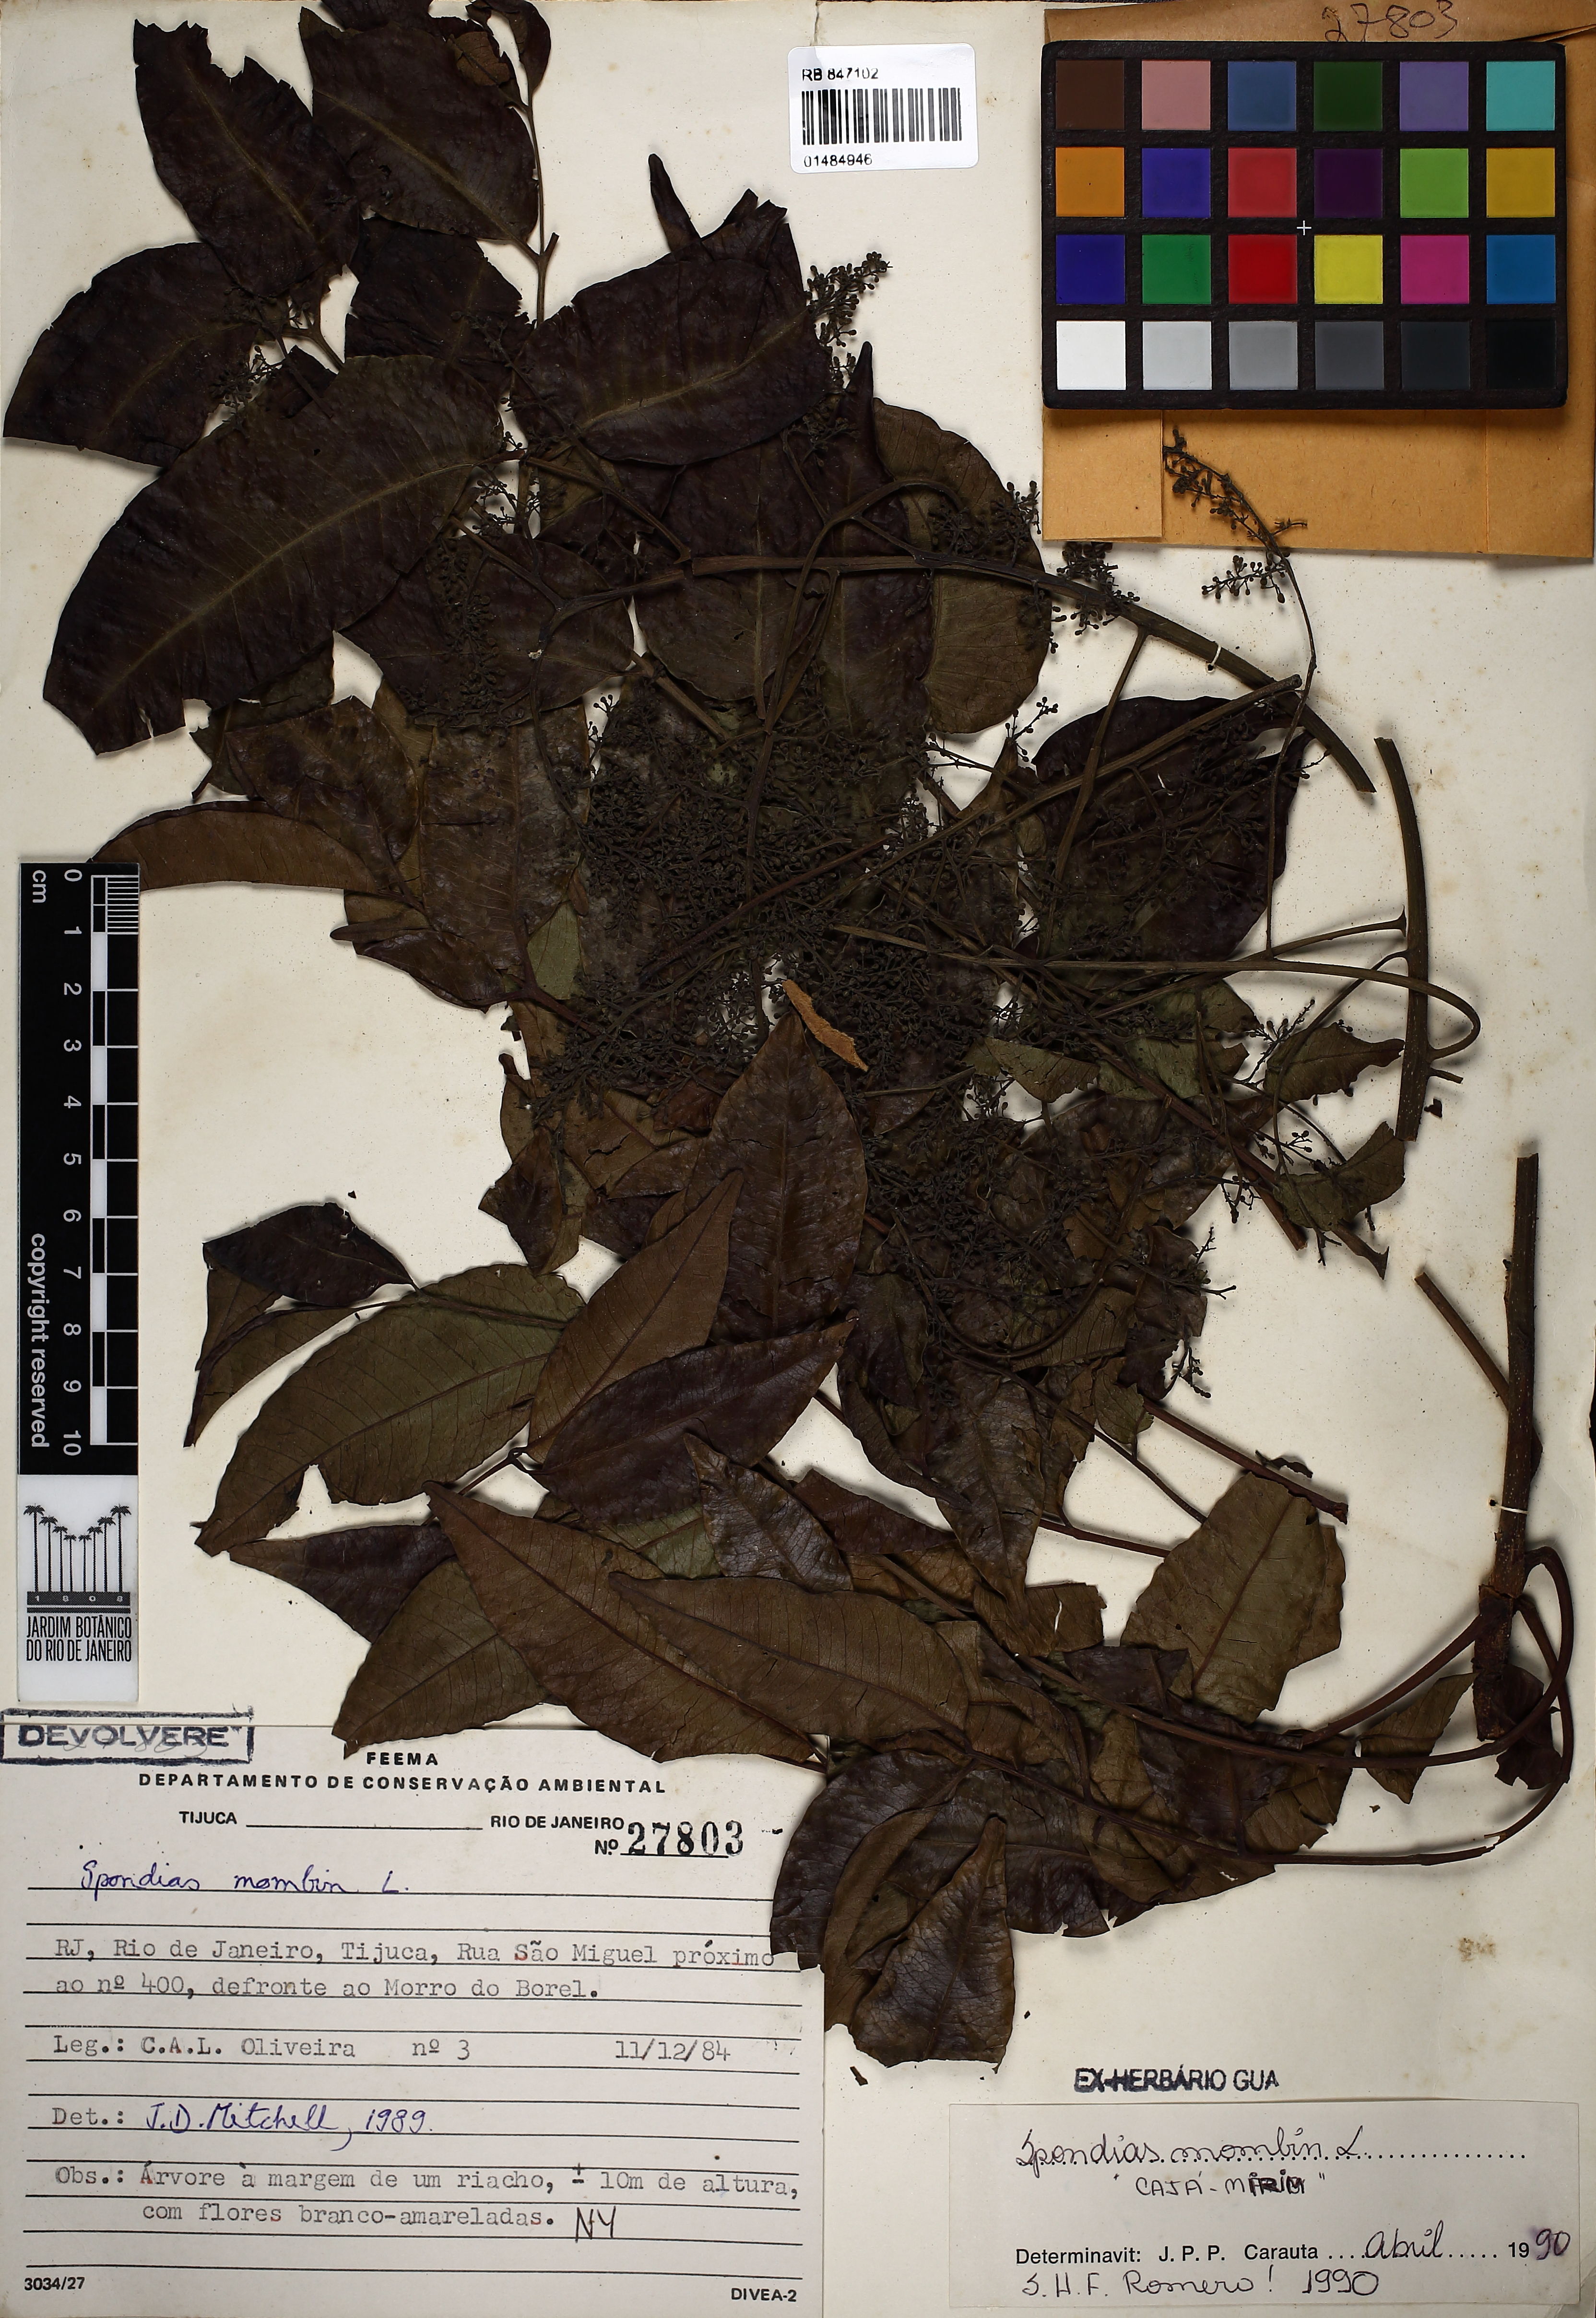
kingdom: Plantae
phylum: Tracheophyta
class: Magnoliopsida
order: Sapindales
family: Anacardiaceae
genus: Spondias
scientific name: Spondias mombin
